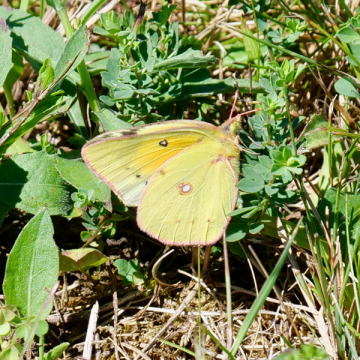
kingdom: Animalia
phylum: Arthropoda
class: Insecta
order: Lepidoptera
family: Pieridae
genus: Colias
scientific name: Colias eurytheme
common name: Orange Sulphur
